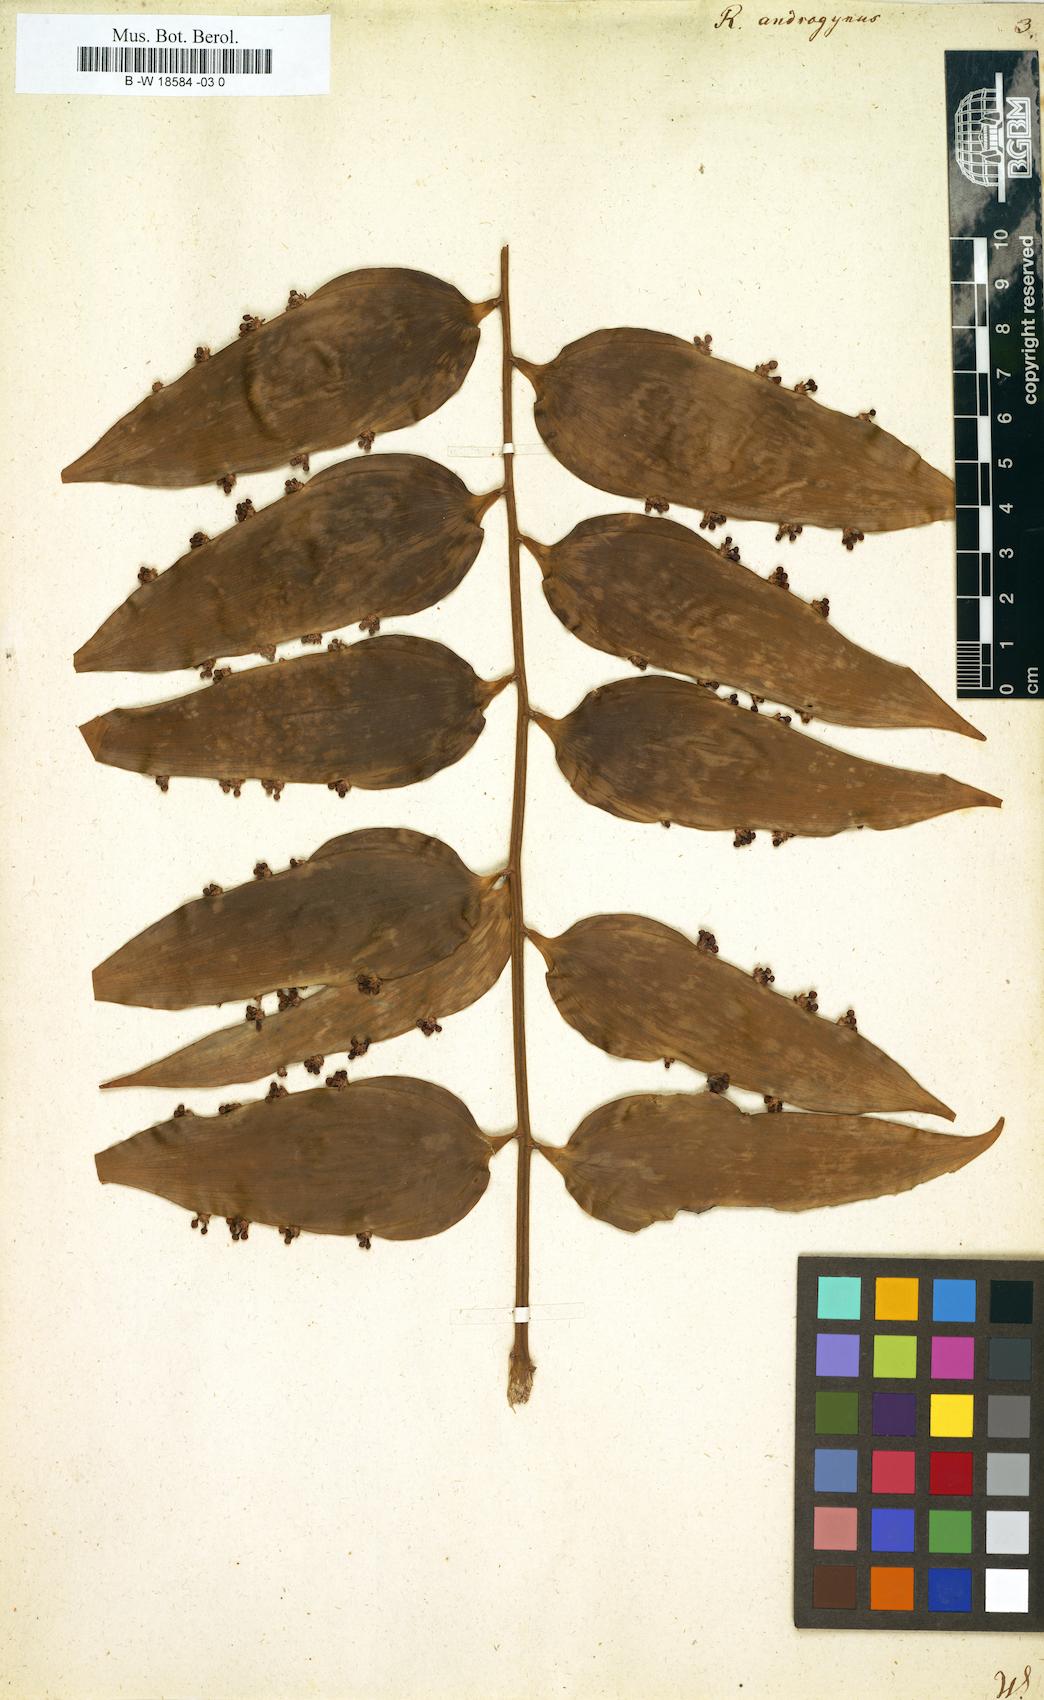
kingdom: Plantae
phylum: Tracheophyta
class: Liliopsida
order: Asparagales
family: Asparagaceae
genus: Semele
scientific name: Semele androgyna
